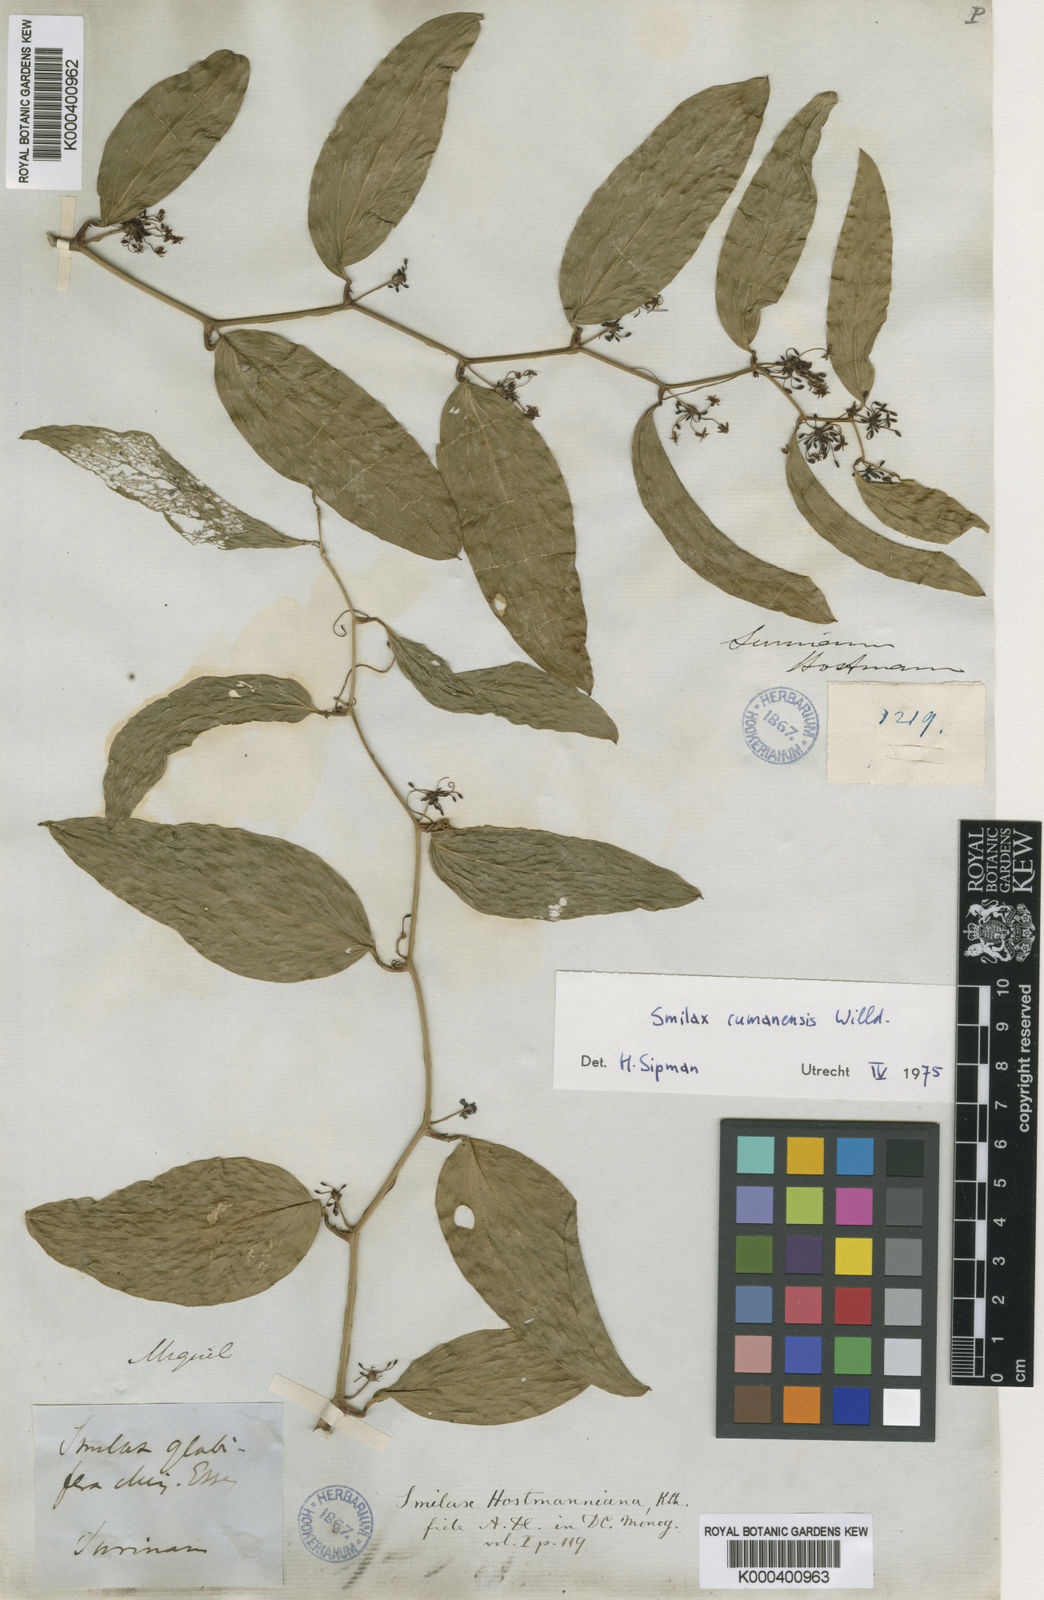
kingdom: Plantae
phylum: Tracheophyta
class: Liliopsida
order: Liliales
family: Smilacaceae
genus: Smilax
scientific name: Smilax oblongata
